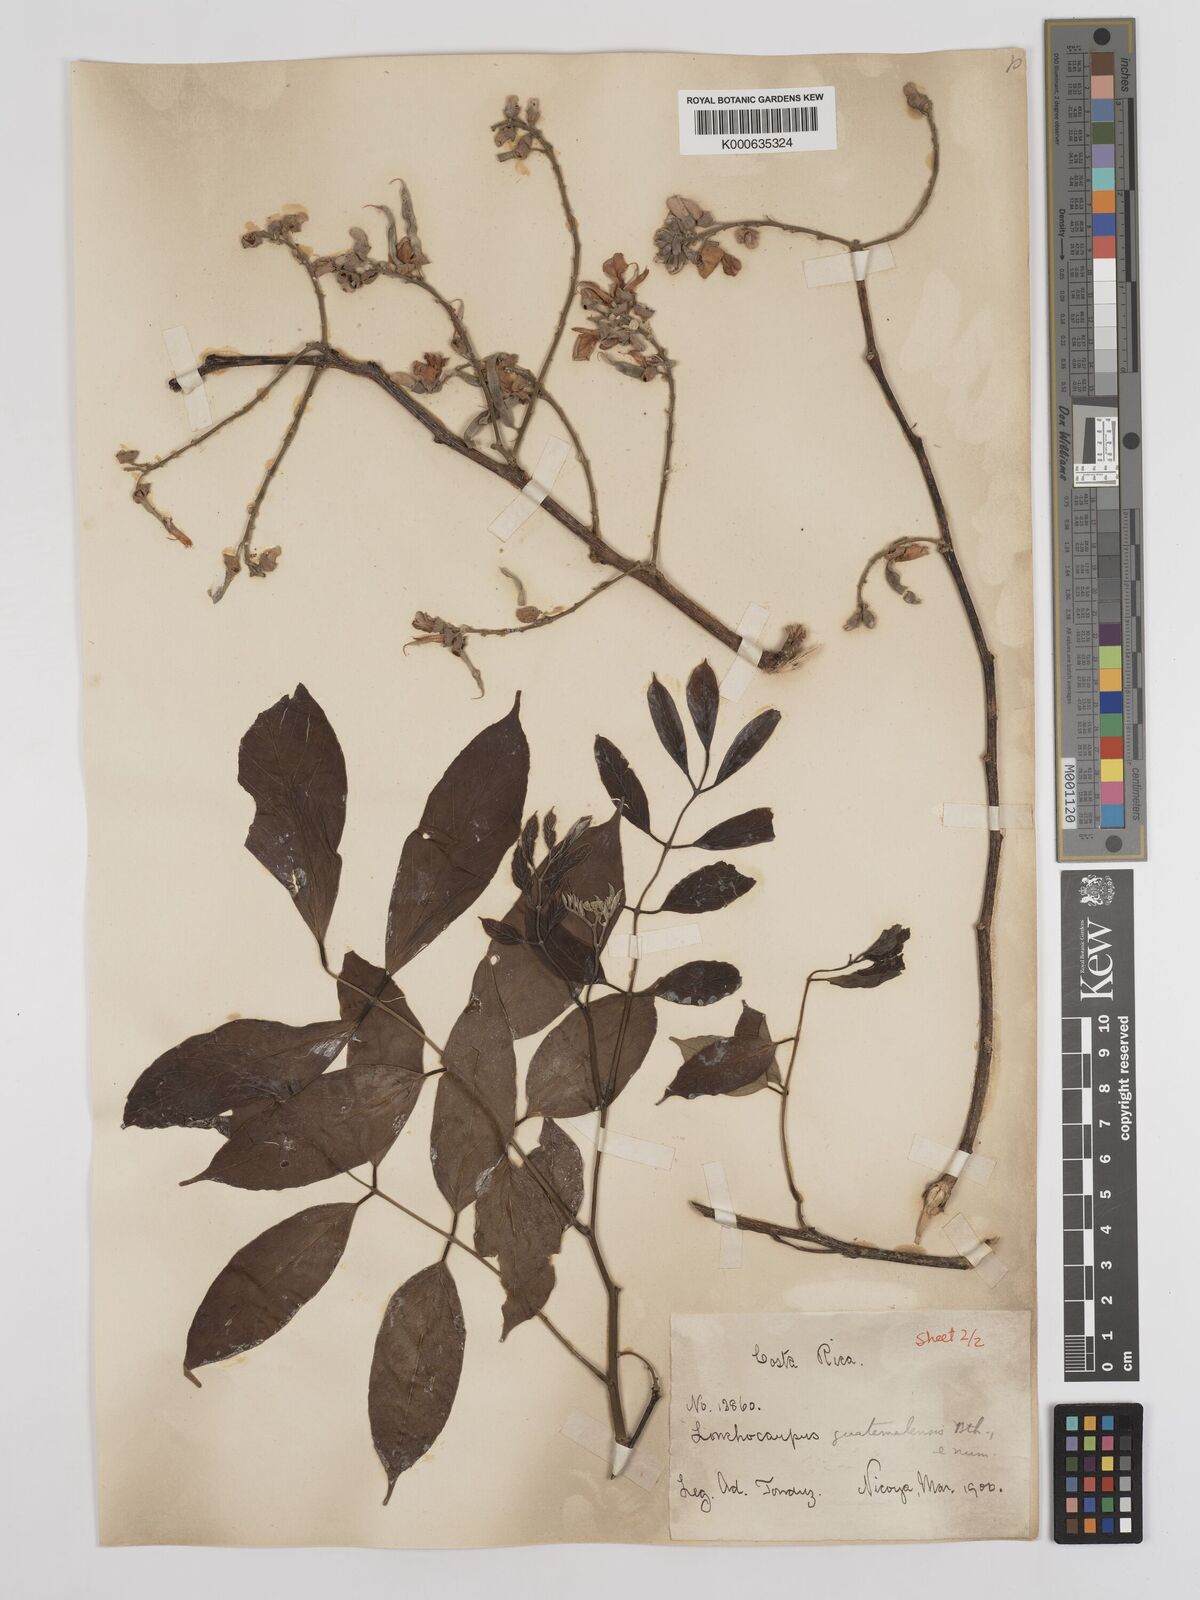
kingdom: Plantae
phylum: Tracheophyta
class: Magnoliopsida
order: Fabales
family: Fabaceae
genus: Lonchocarpus
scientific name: Lonchocarpus guatemalensis
